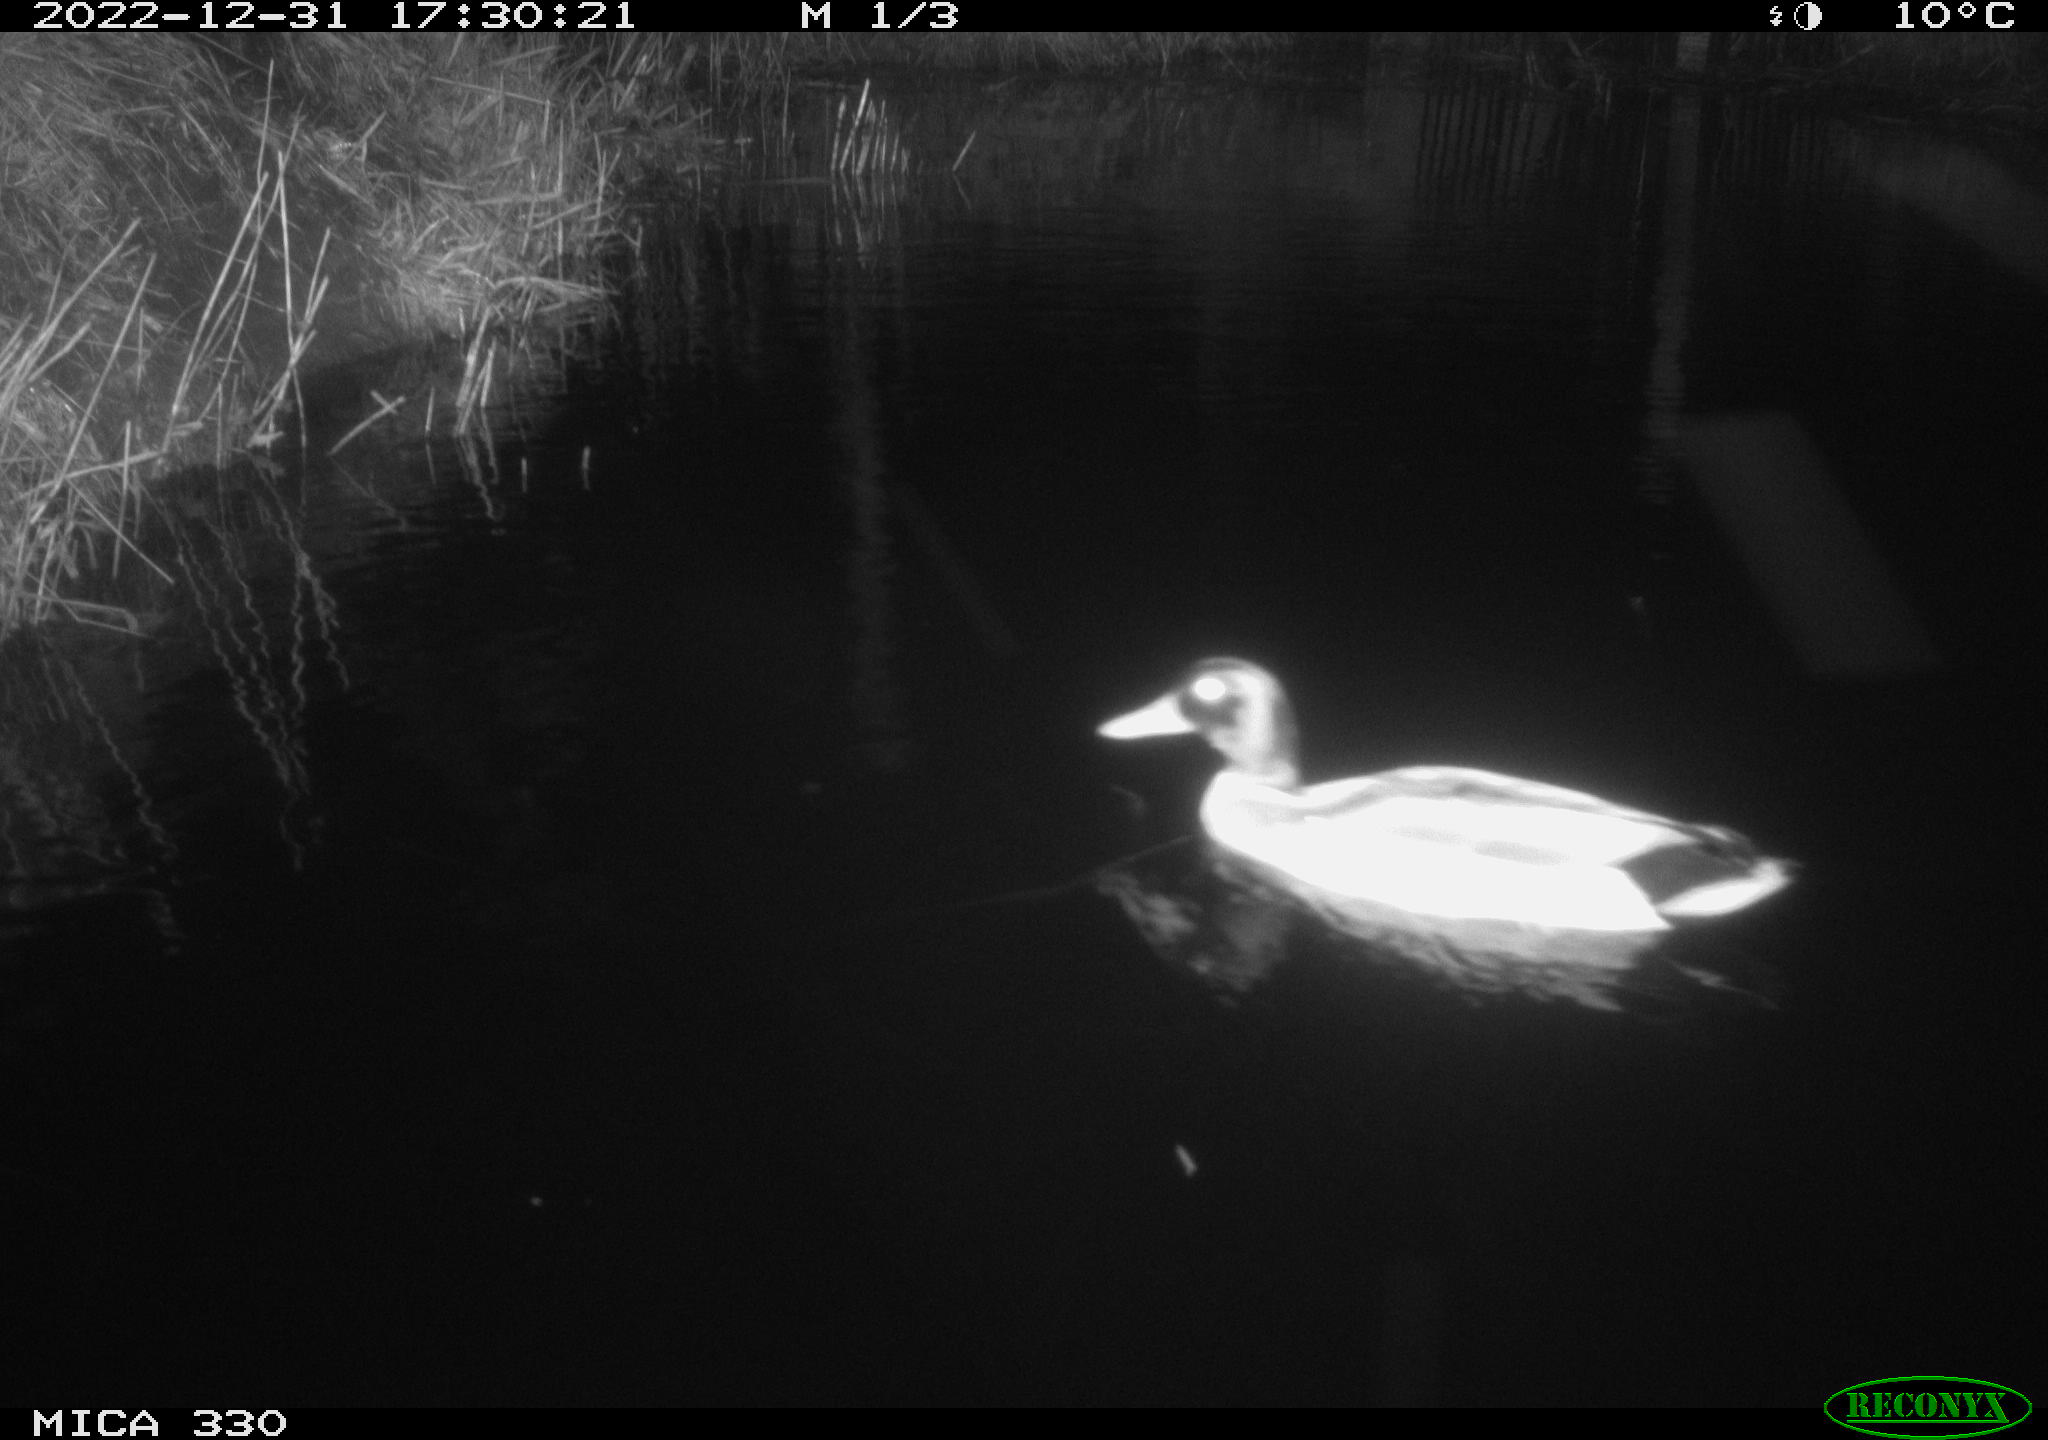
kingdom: Animalia
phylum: Chordata
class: Aves
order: Anseriformes
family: Anatidae
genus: Anas
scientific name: Anas
